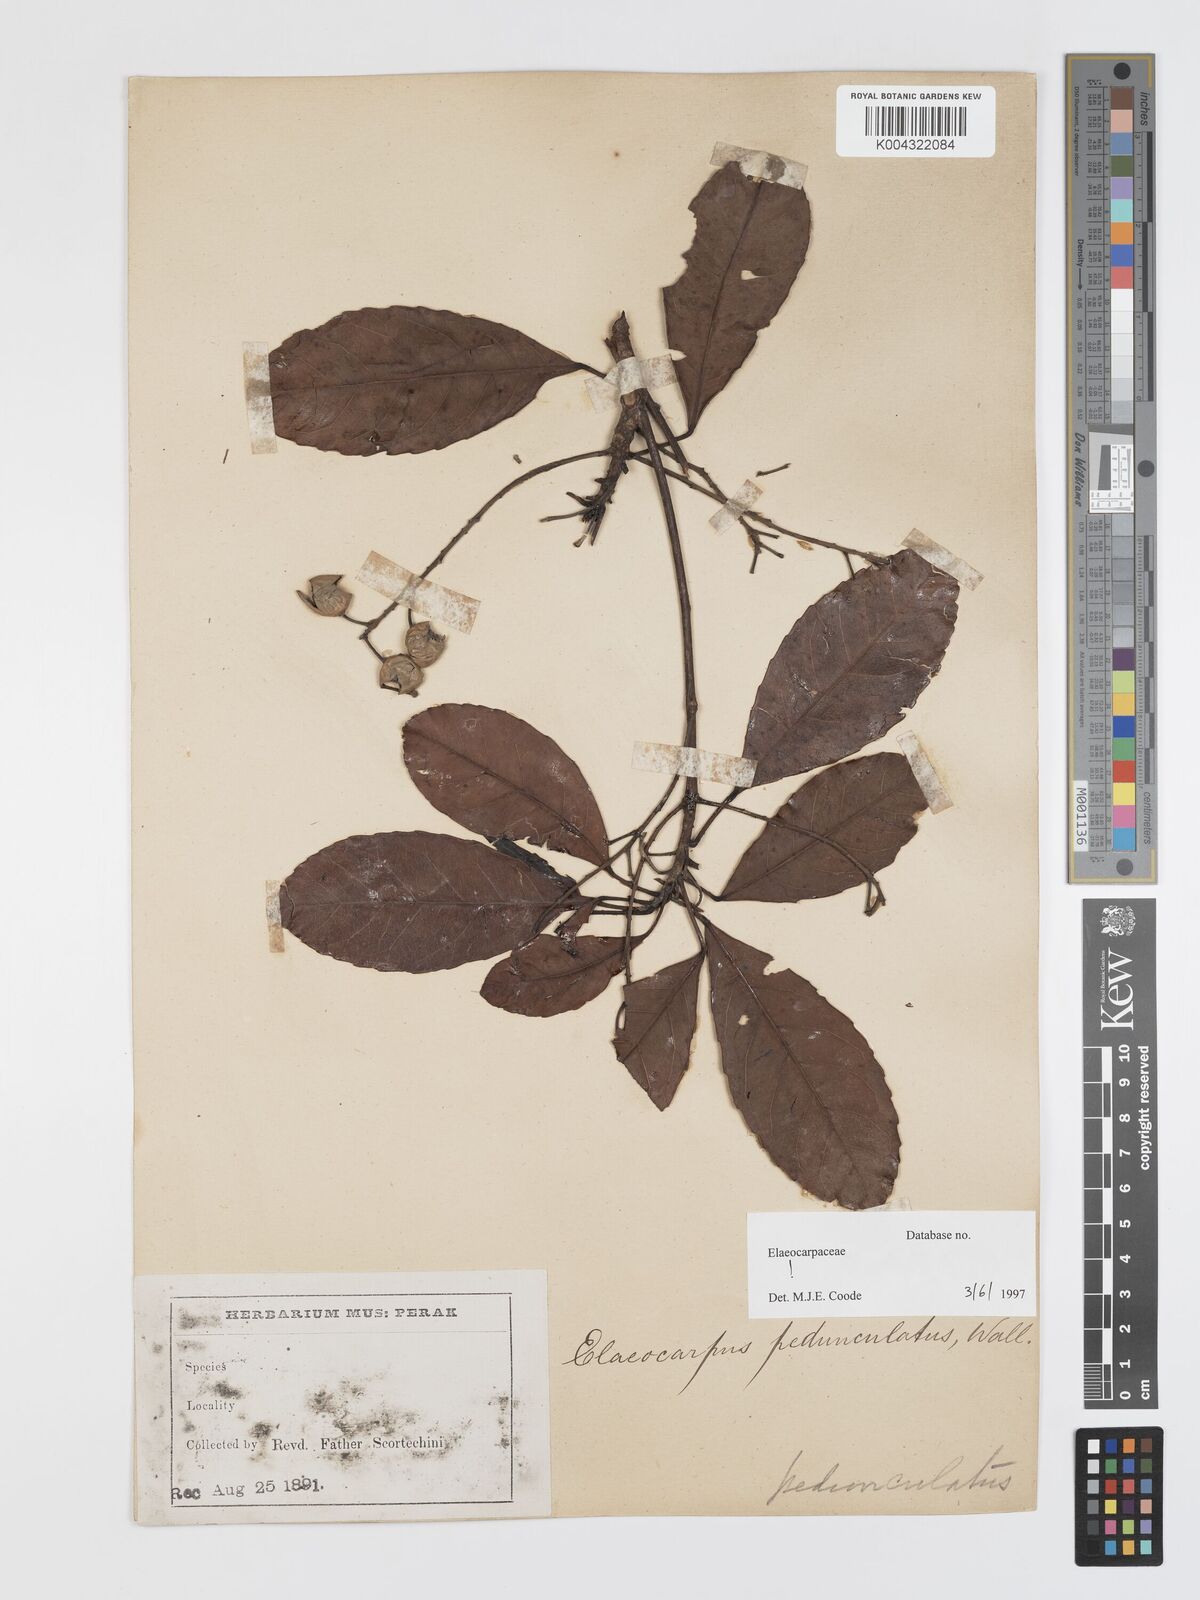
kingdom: Plantae
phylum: Tracheophyta
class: Magnoliopsida
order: Oxalidales
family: Elaeocarpaceae
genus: Elaeocarpus
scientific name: Elaeocarpus pedunculatus
